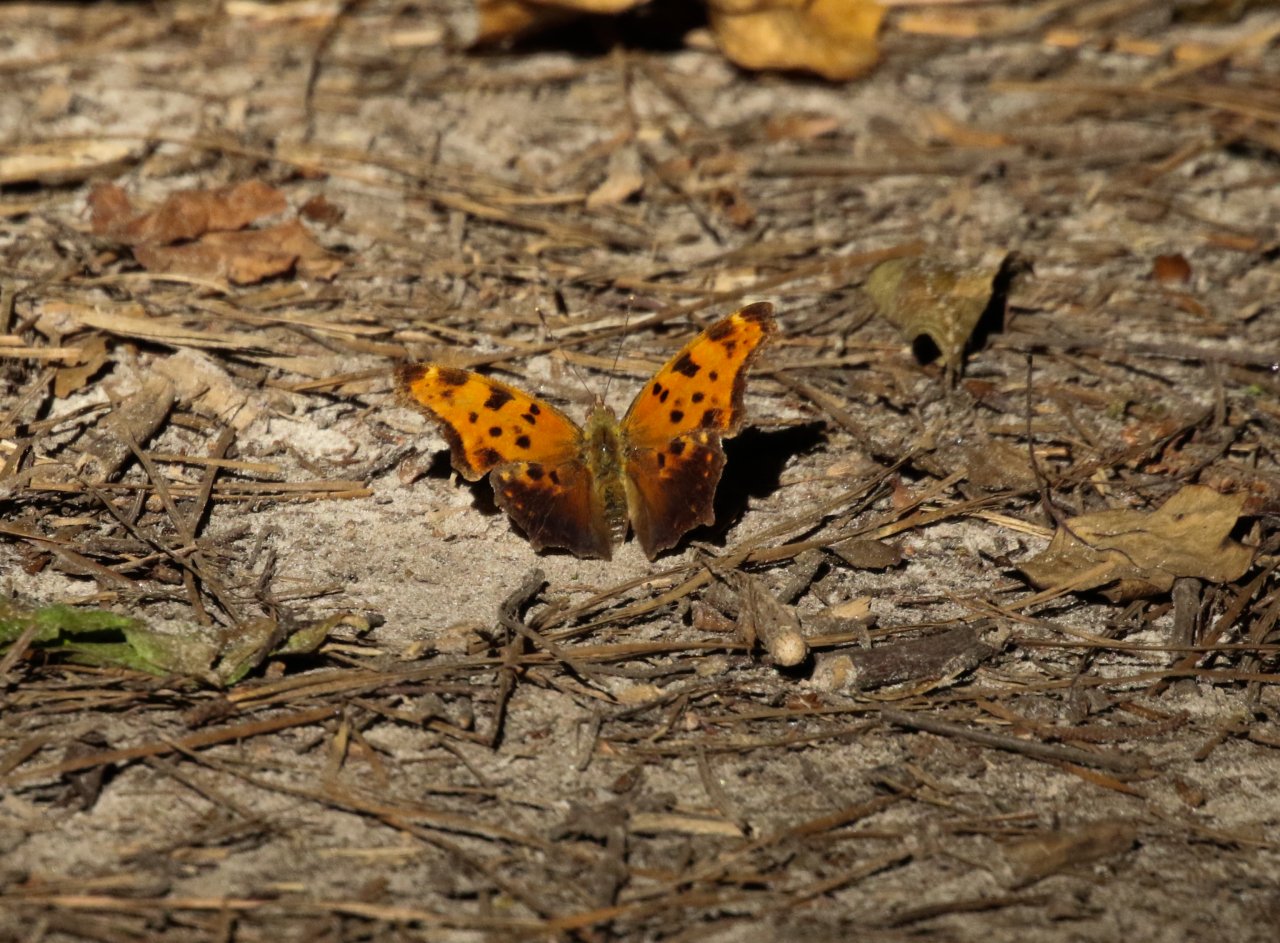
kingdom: Animalia
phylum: Arthropoda
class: Insecta
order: Lepidoptera
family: Nymphalidae
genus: Polygonia
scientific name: Polygonia comma
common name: Eastern Comma
